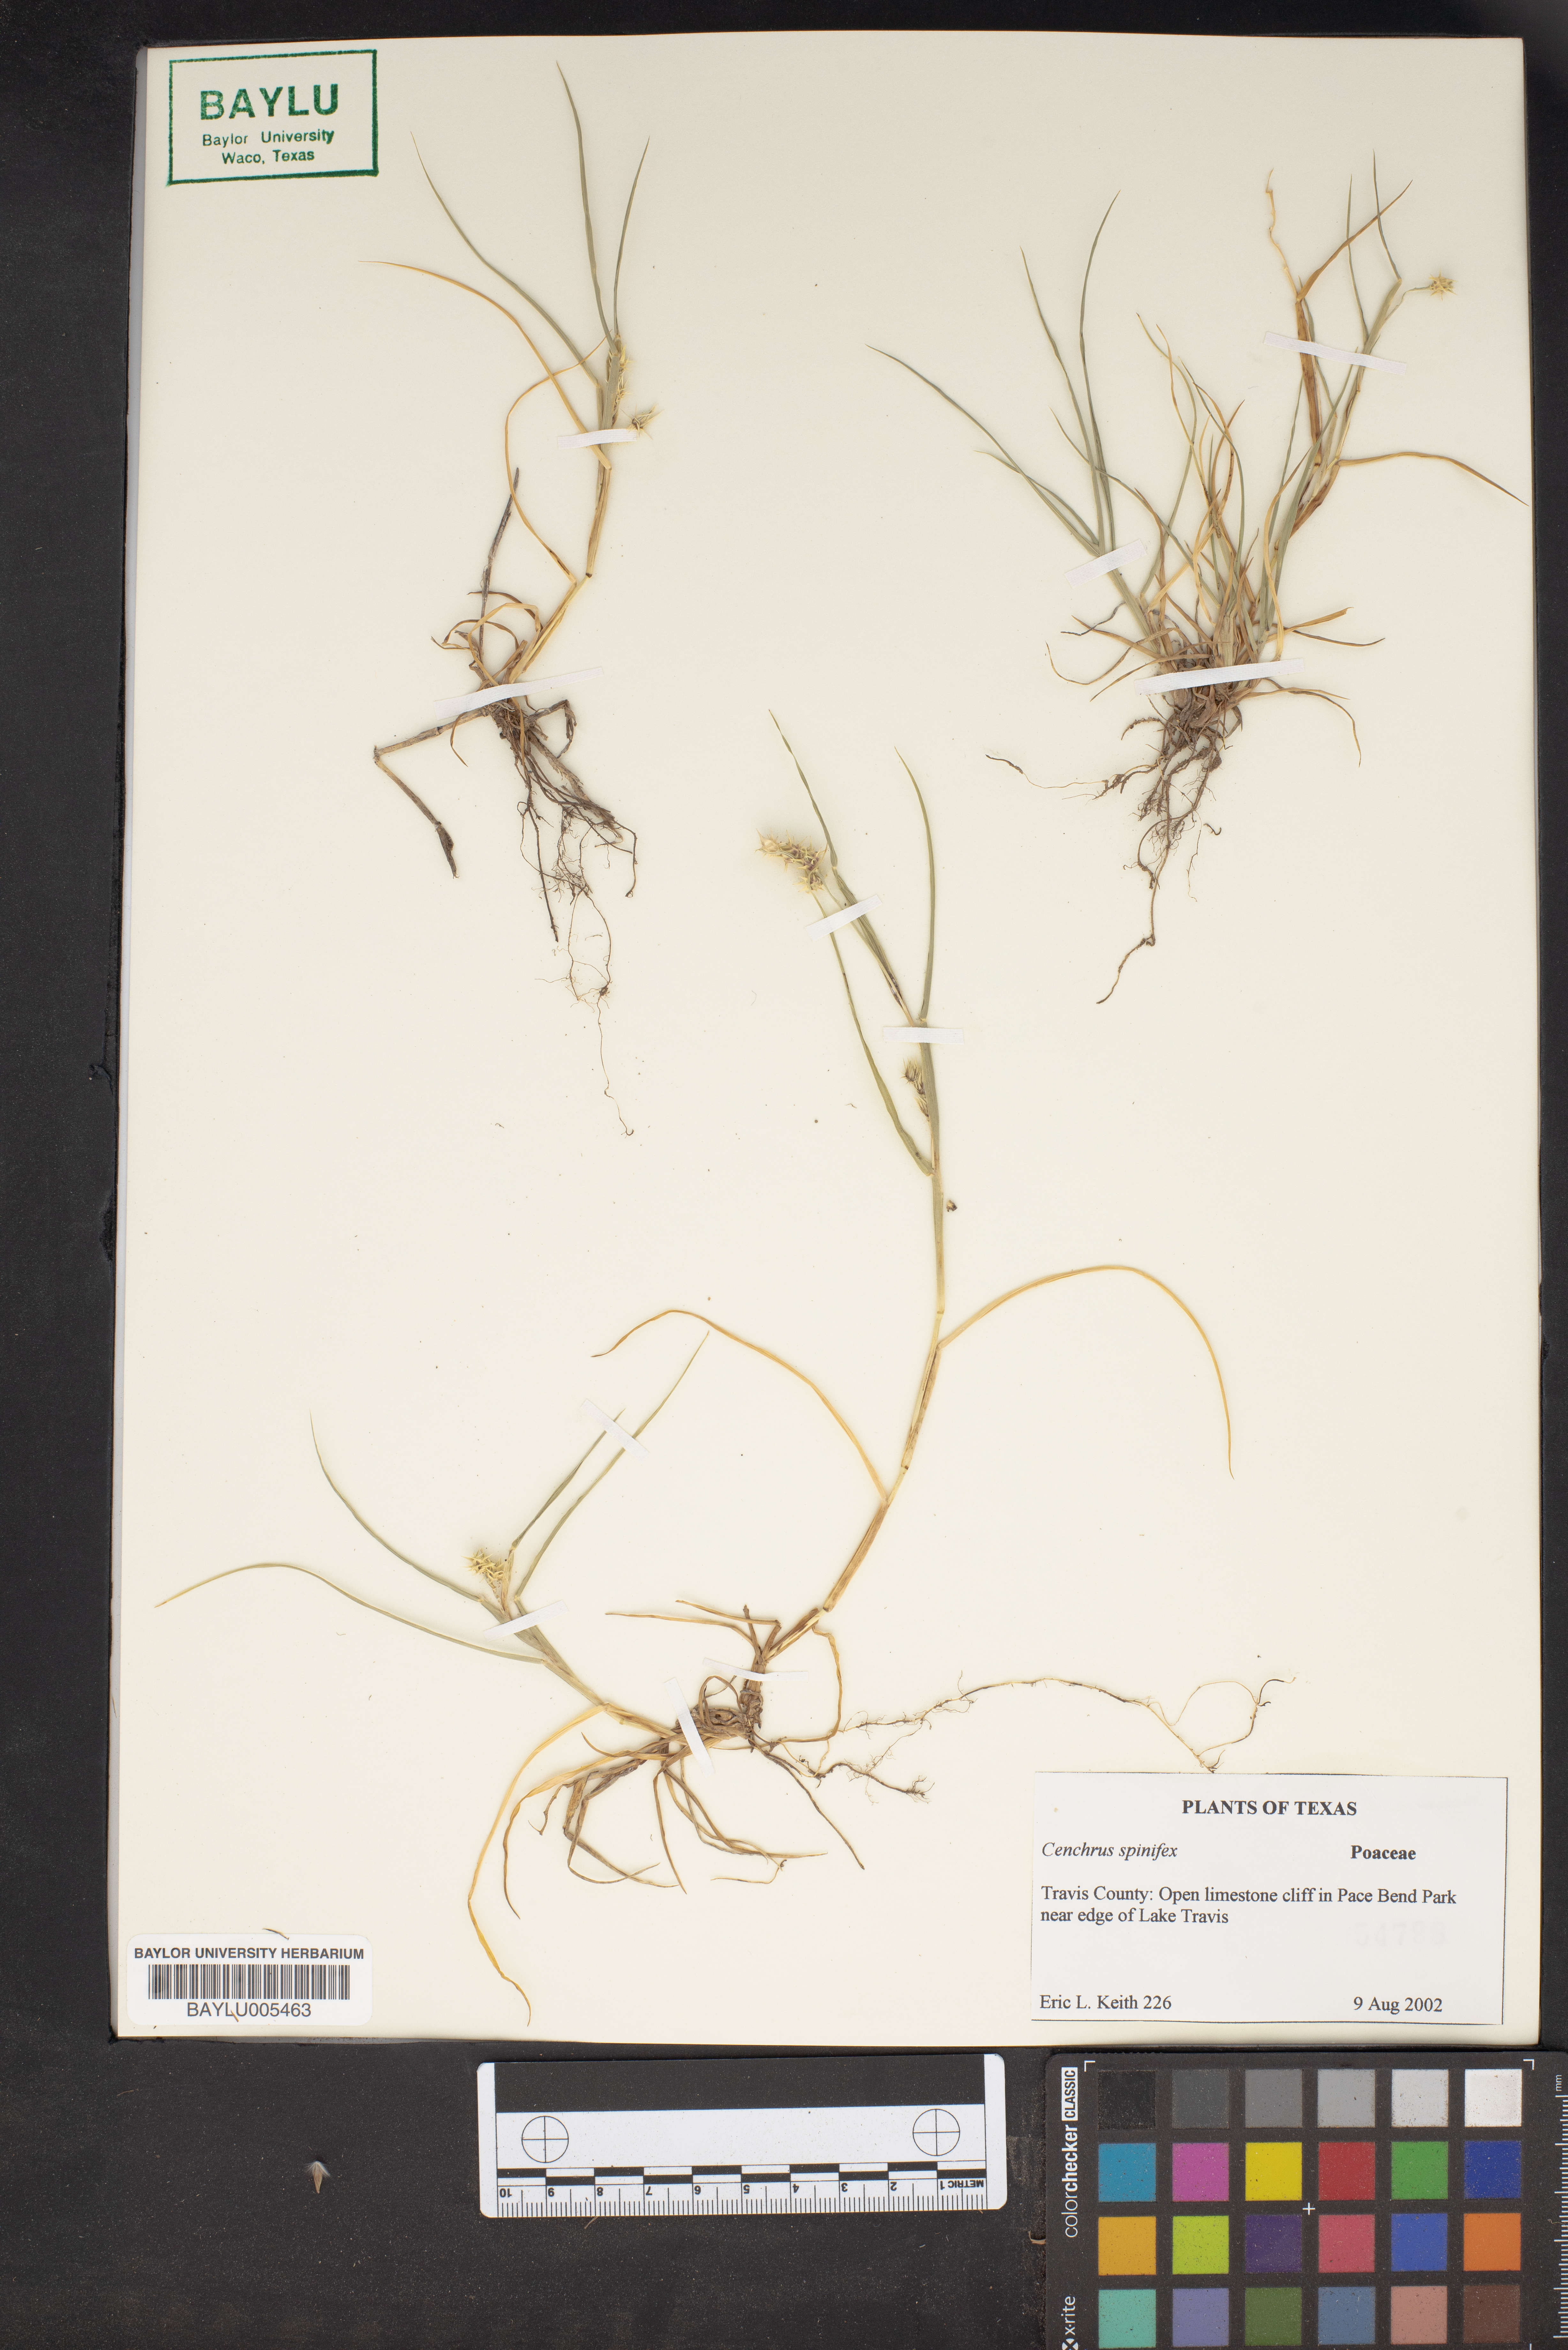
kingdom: Plantae
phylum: Tracheophyta
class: Liliopsida
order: Poales
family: Poaceae
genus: Cenchrus
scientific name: Cenchrus spinifex
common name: Coast sandbur
